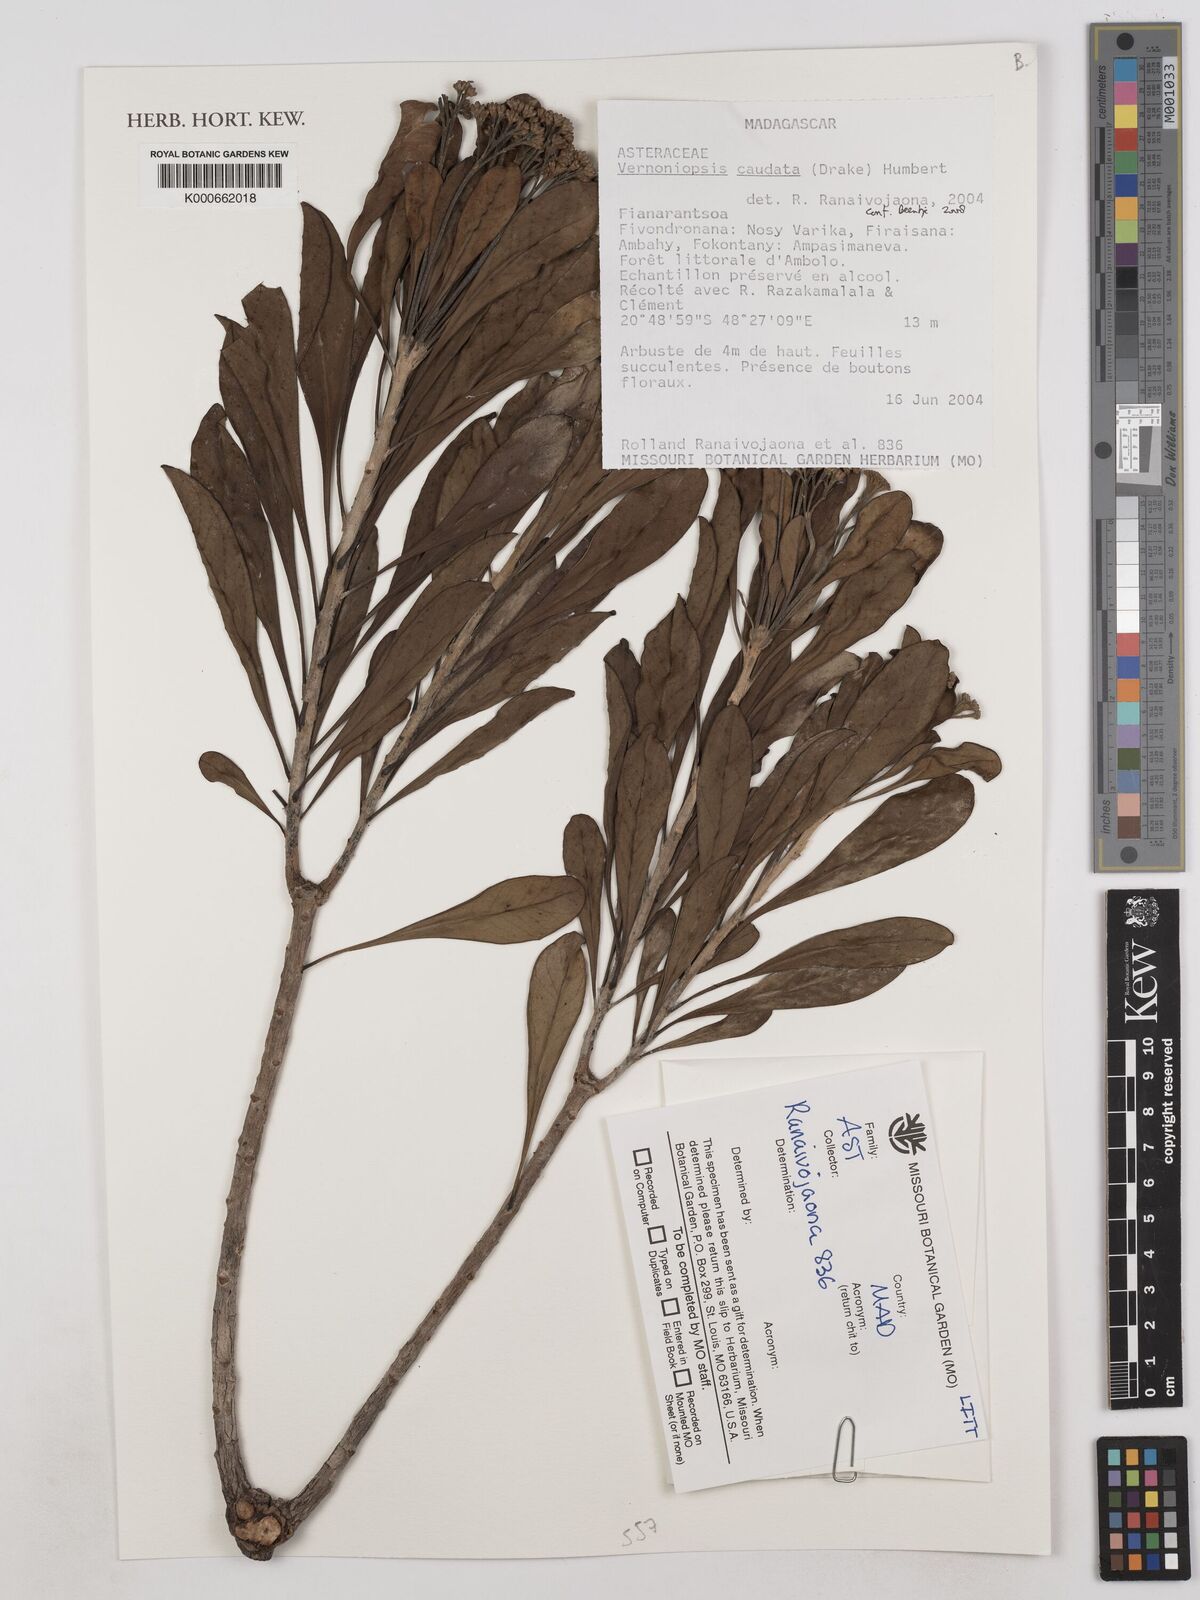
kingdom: Plantae
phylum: Tracheophyta
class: Magnoliopsida
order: Asterales
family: Asteraceae
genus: Vernoniopsis
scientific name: Vernoniopsis caudata
